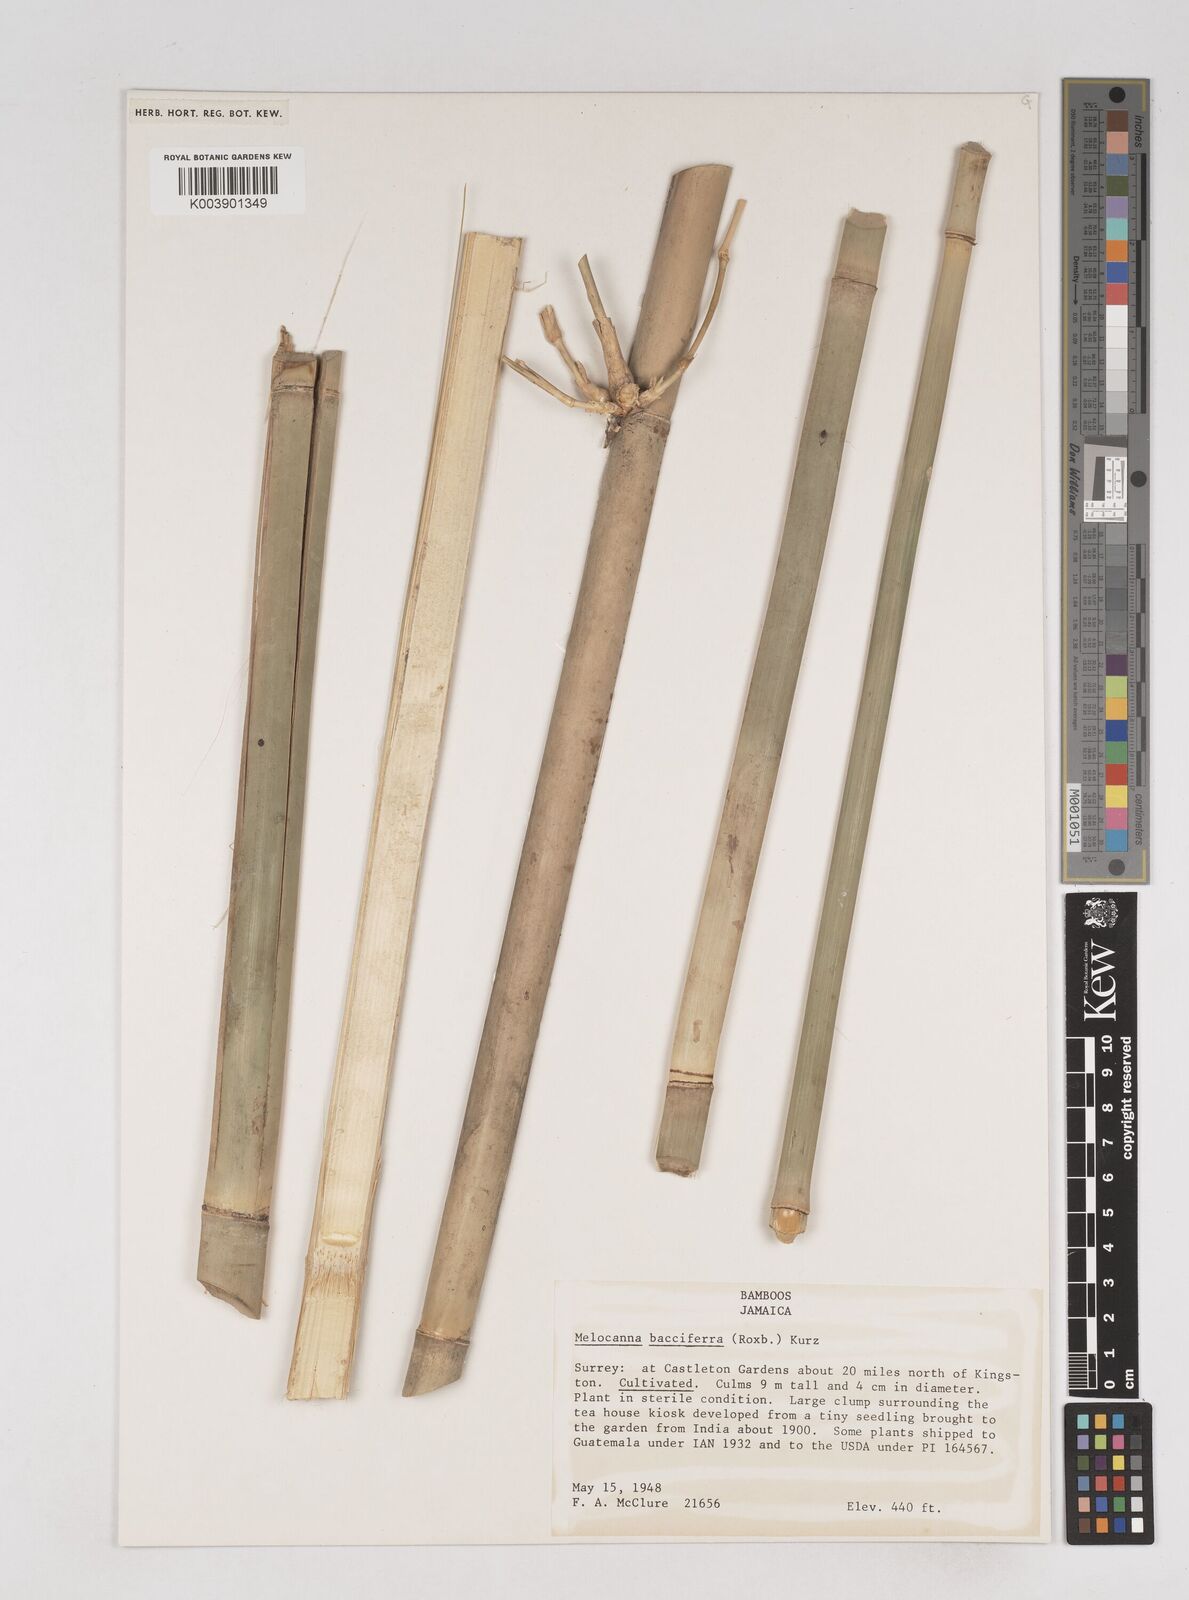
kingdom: Plantae
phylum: Tracheophyta
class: Liliopsida
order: Poales
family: Poaceae
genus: Melocanna
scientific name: Melocanna baccifera
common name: Berry bamboo
